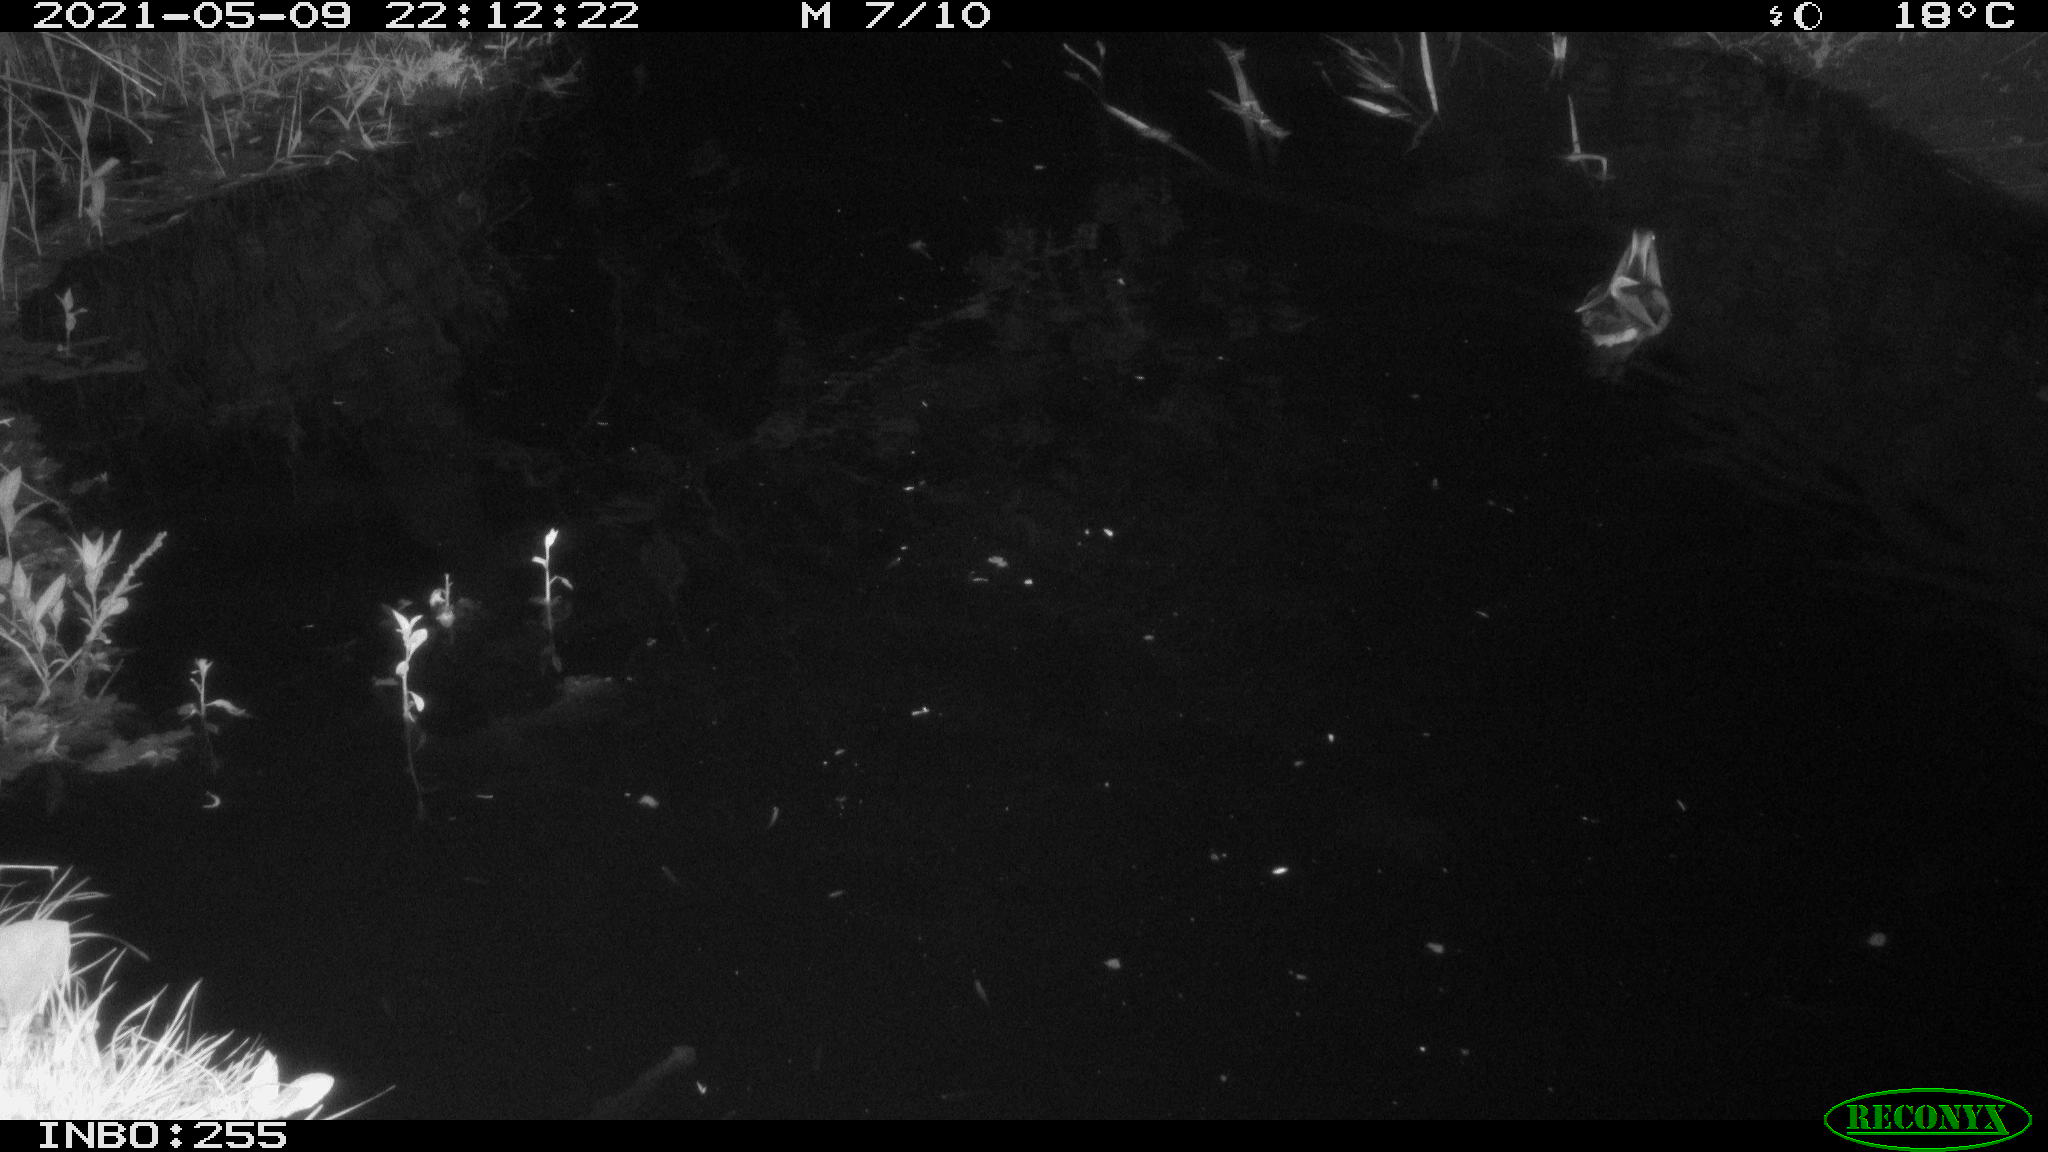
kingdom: Animalia
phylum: Chordata
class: Aves
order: Anseriformes
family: Anatidae
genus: Aix
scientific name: Aix galericulata
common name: Mandarin duck
